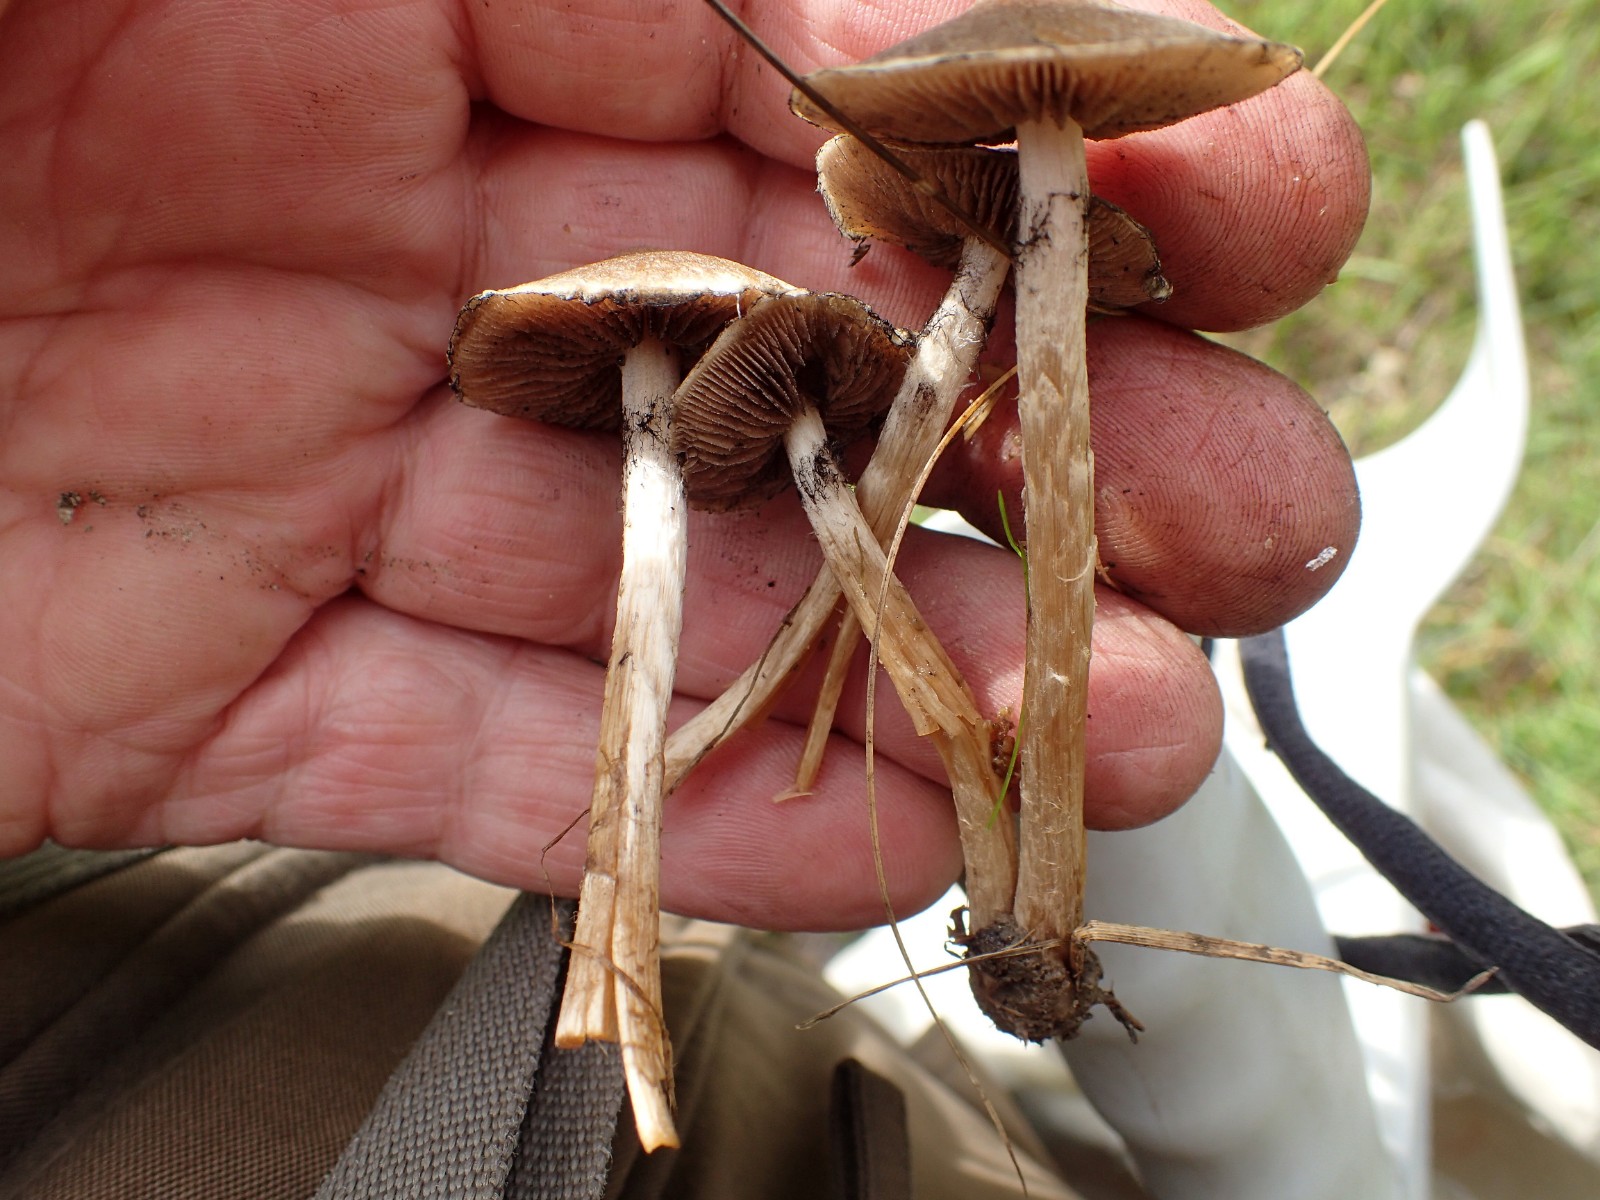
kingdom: Fungi
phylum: Basidiomycota
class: Agaricomycetes
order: Agaricales
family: Strophariaceae
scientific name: Strophariaceae
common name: bredbladfamilien
